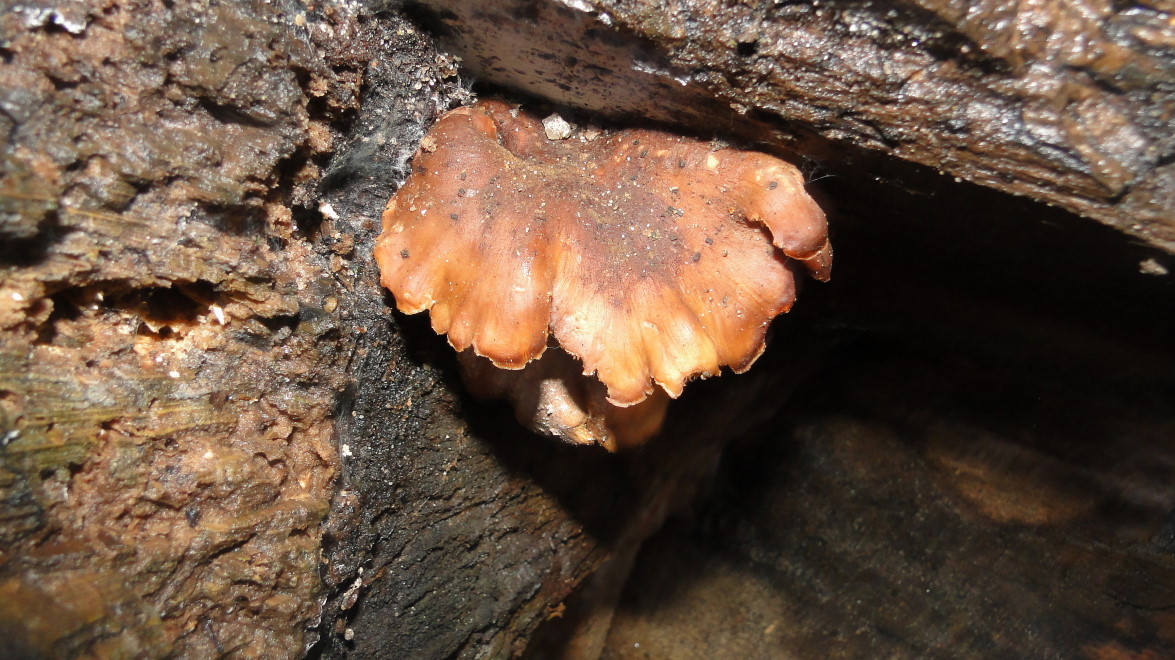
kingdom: Fungi
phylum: Basidiomycota
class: Agaricomycetes
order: Russulales
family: Auriscalpiaceae
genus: Lentinellus
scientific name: Lentinellus ursinus
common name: børstehåret savbladhat
